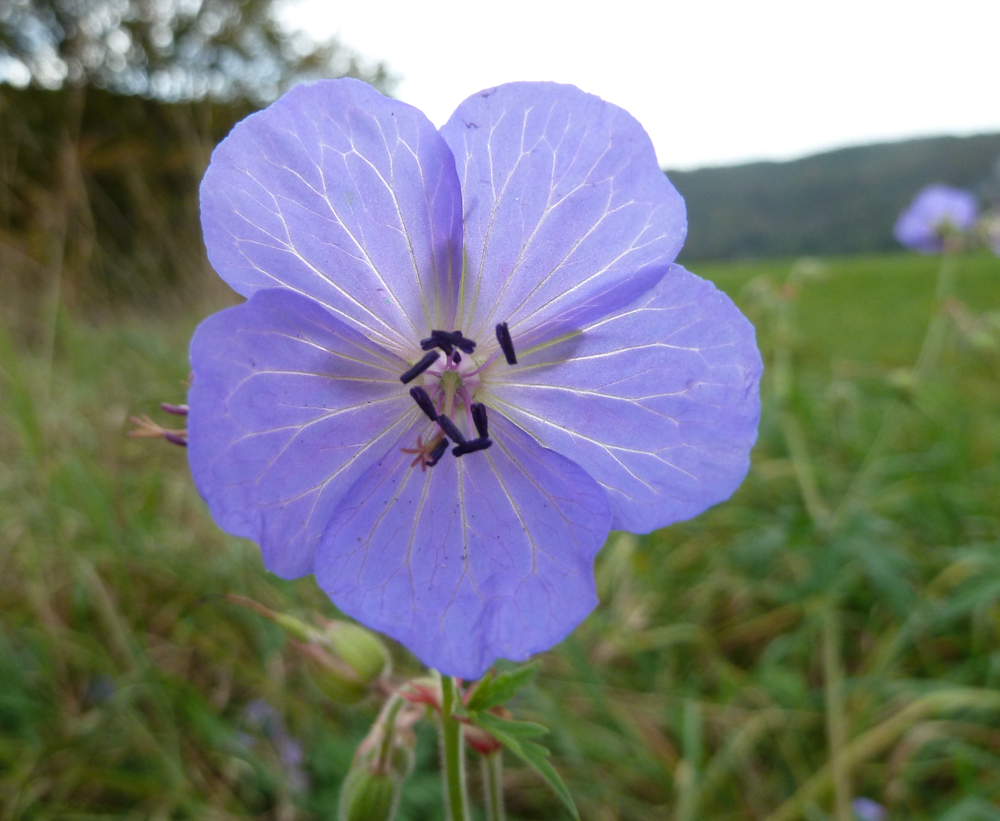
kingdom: Plantae
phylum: Tracheophyta
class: Magnoliopsida
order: Geraniales
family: Geraniaceae
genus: Geranium
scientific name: Geranium pratense
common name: Meadow crane's-bill
